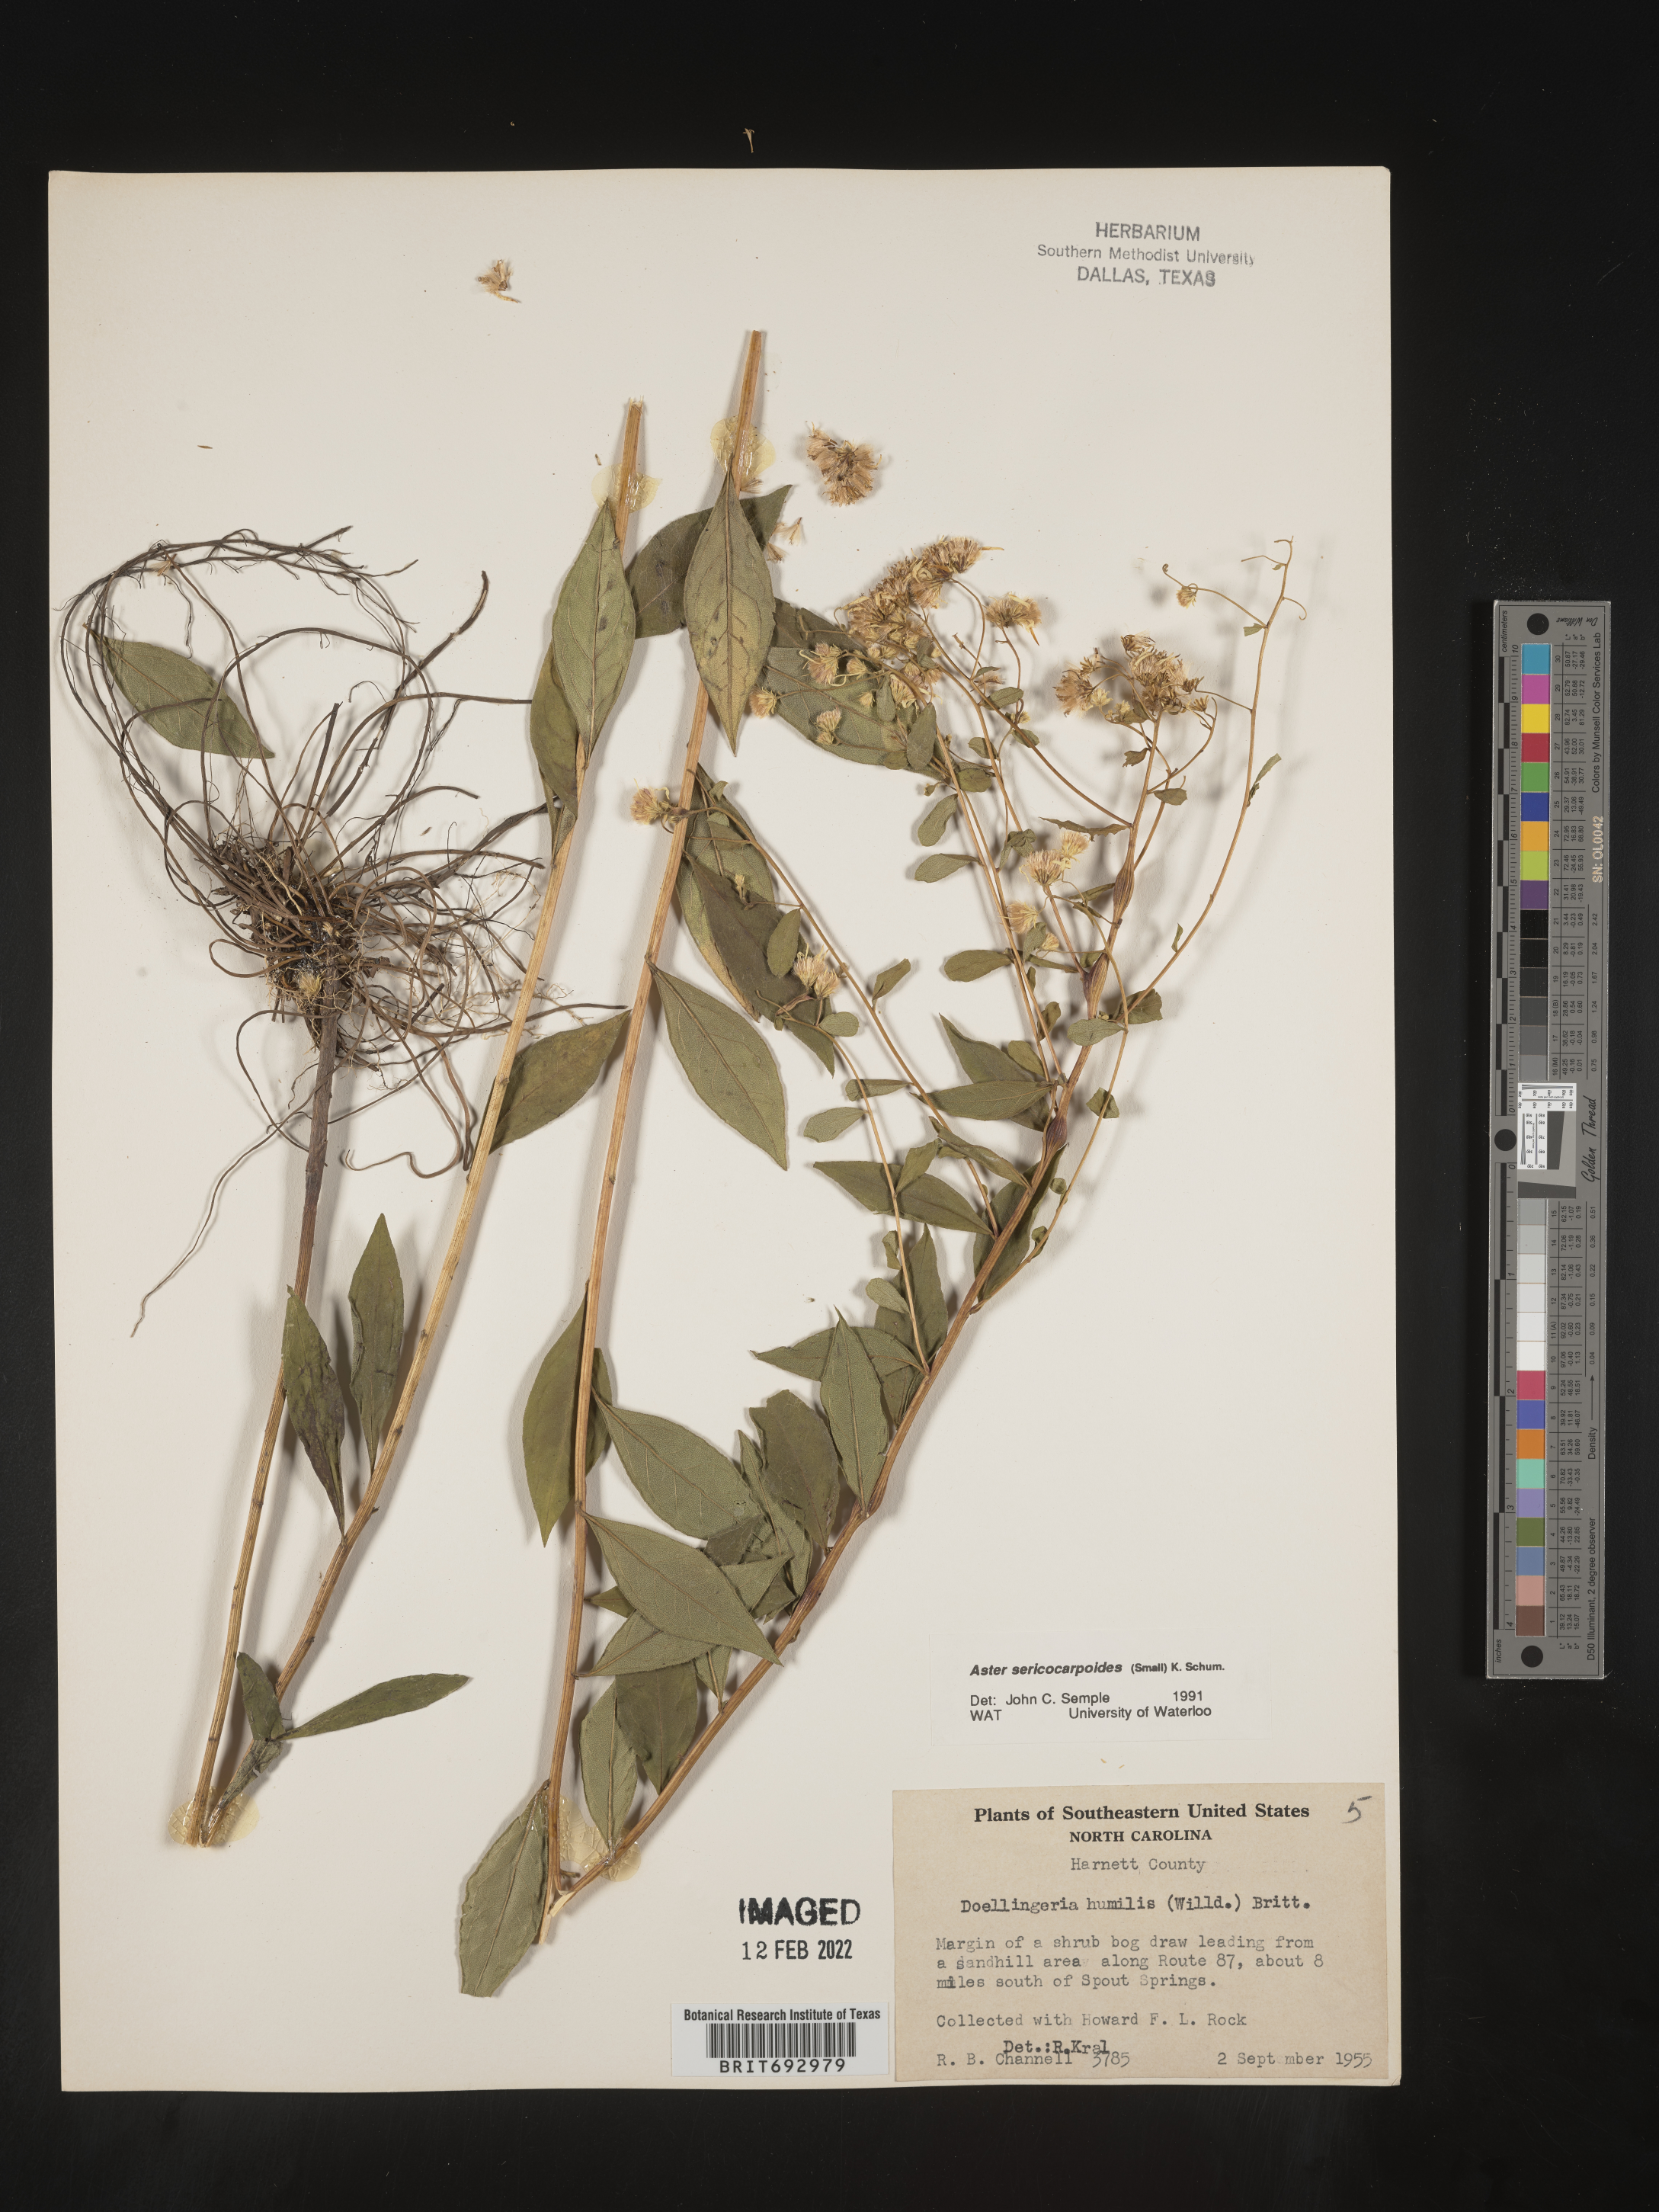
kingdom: Plantae
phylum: Tracheophyta
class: Magnoliopsida
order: Asterales
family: Asteraceae
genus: Doellingeria
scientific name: Doellingeria sericocarpoides
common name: Southern tall flat-top aster
